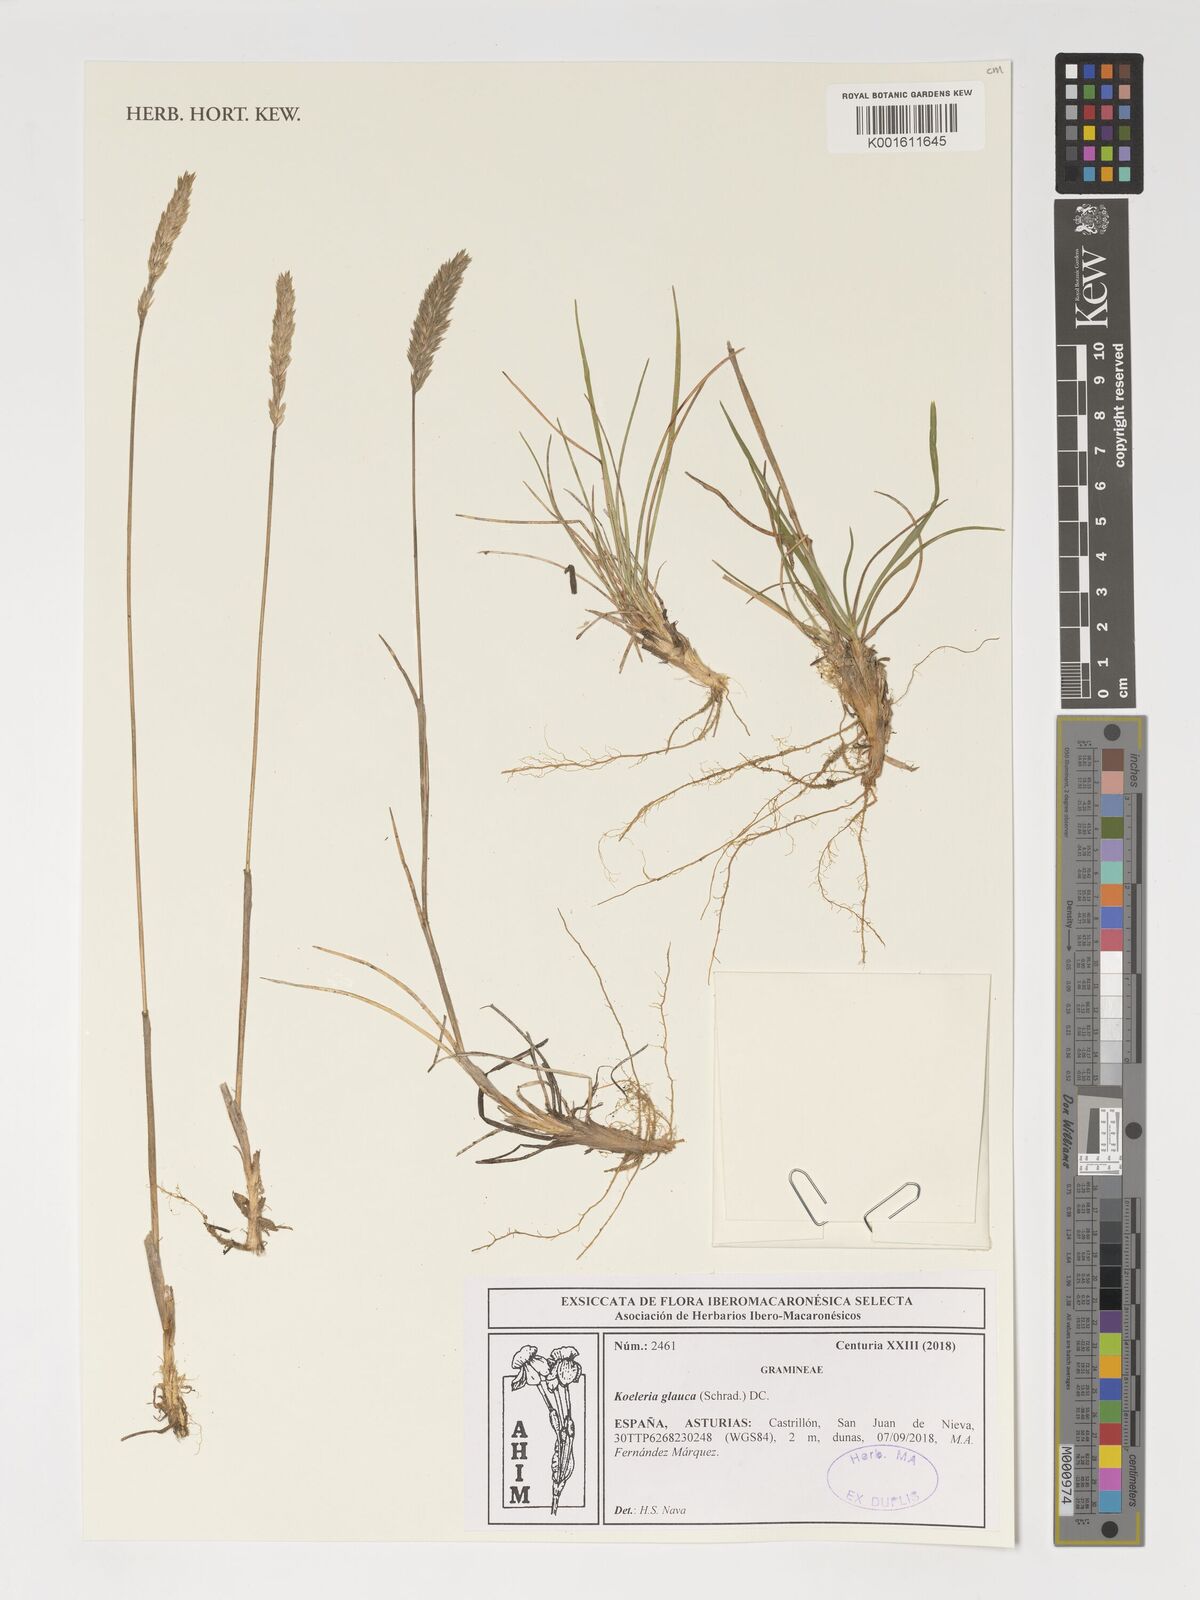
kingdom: Plantae
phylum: Tracheophyta
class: Liliopsida
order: Poales
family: Poaceae
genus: Koeleria
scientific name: Koeleria glauca
